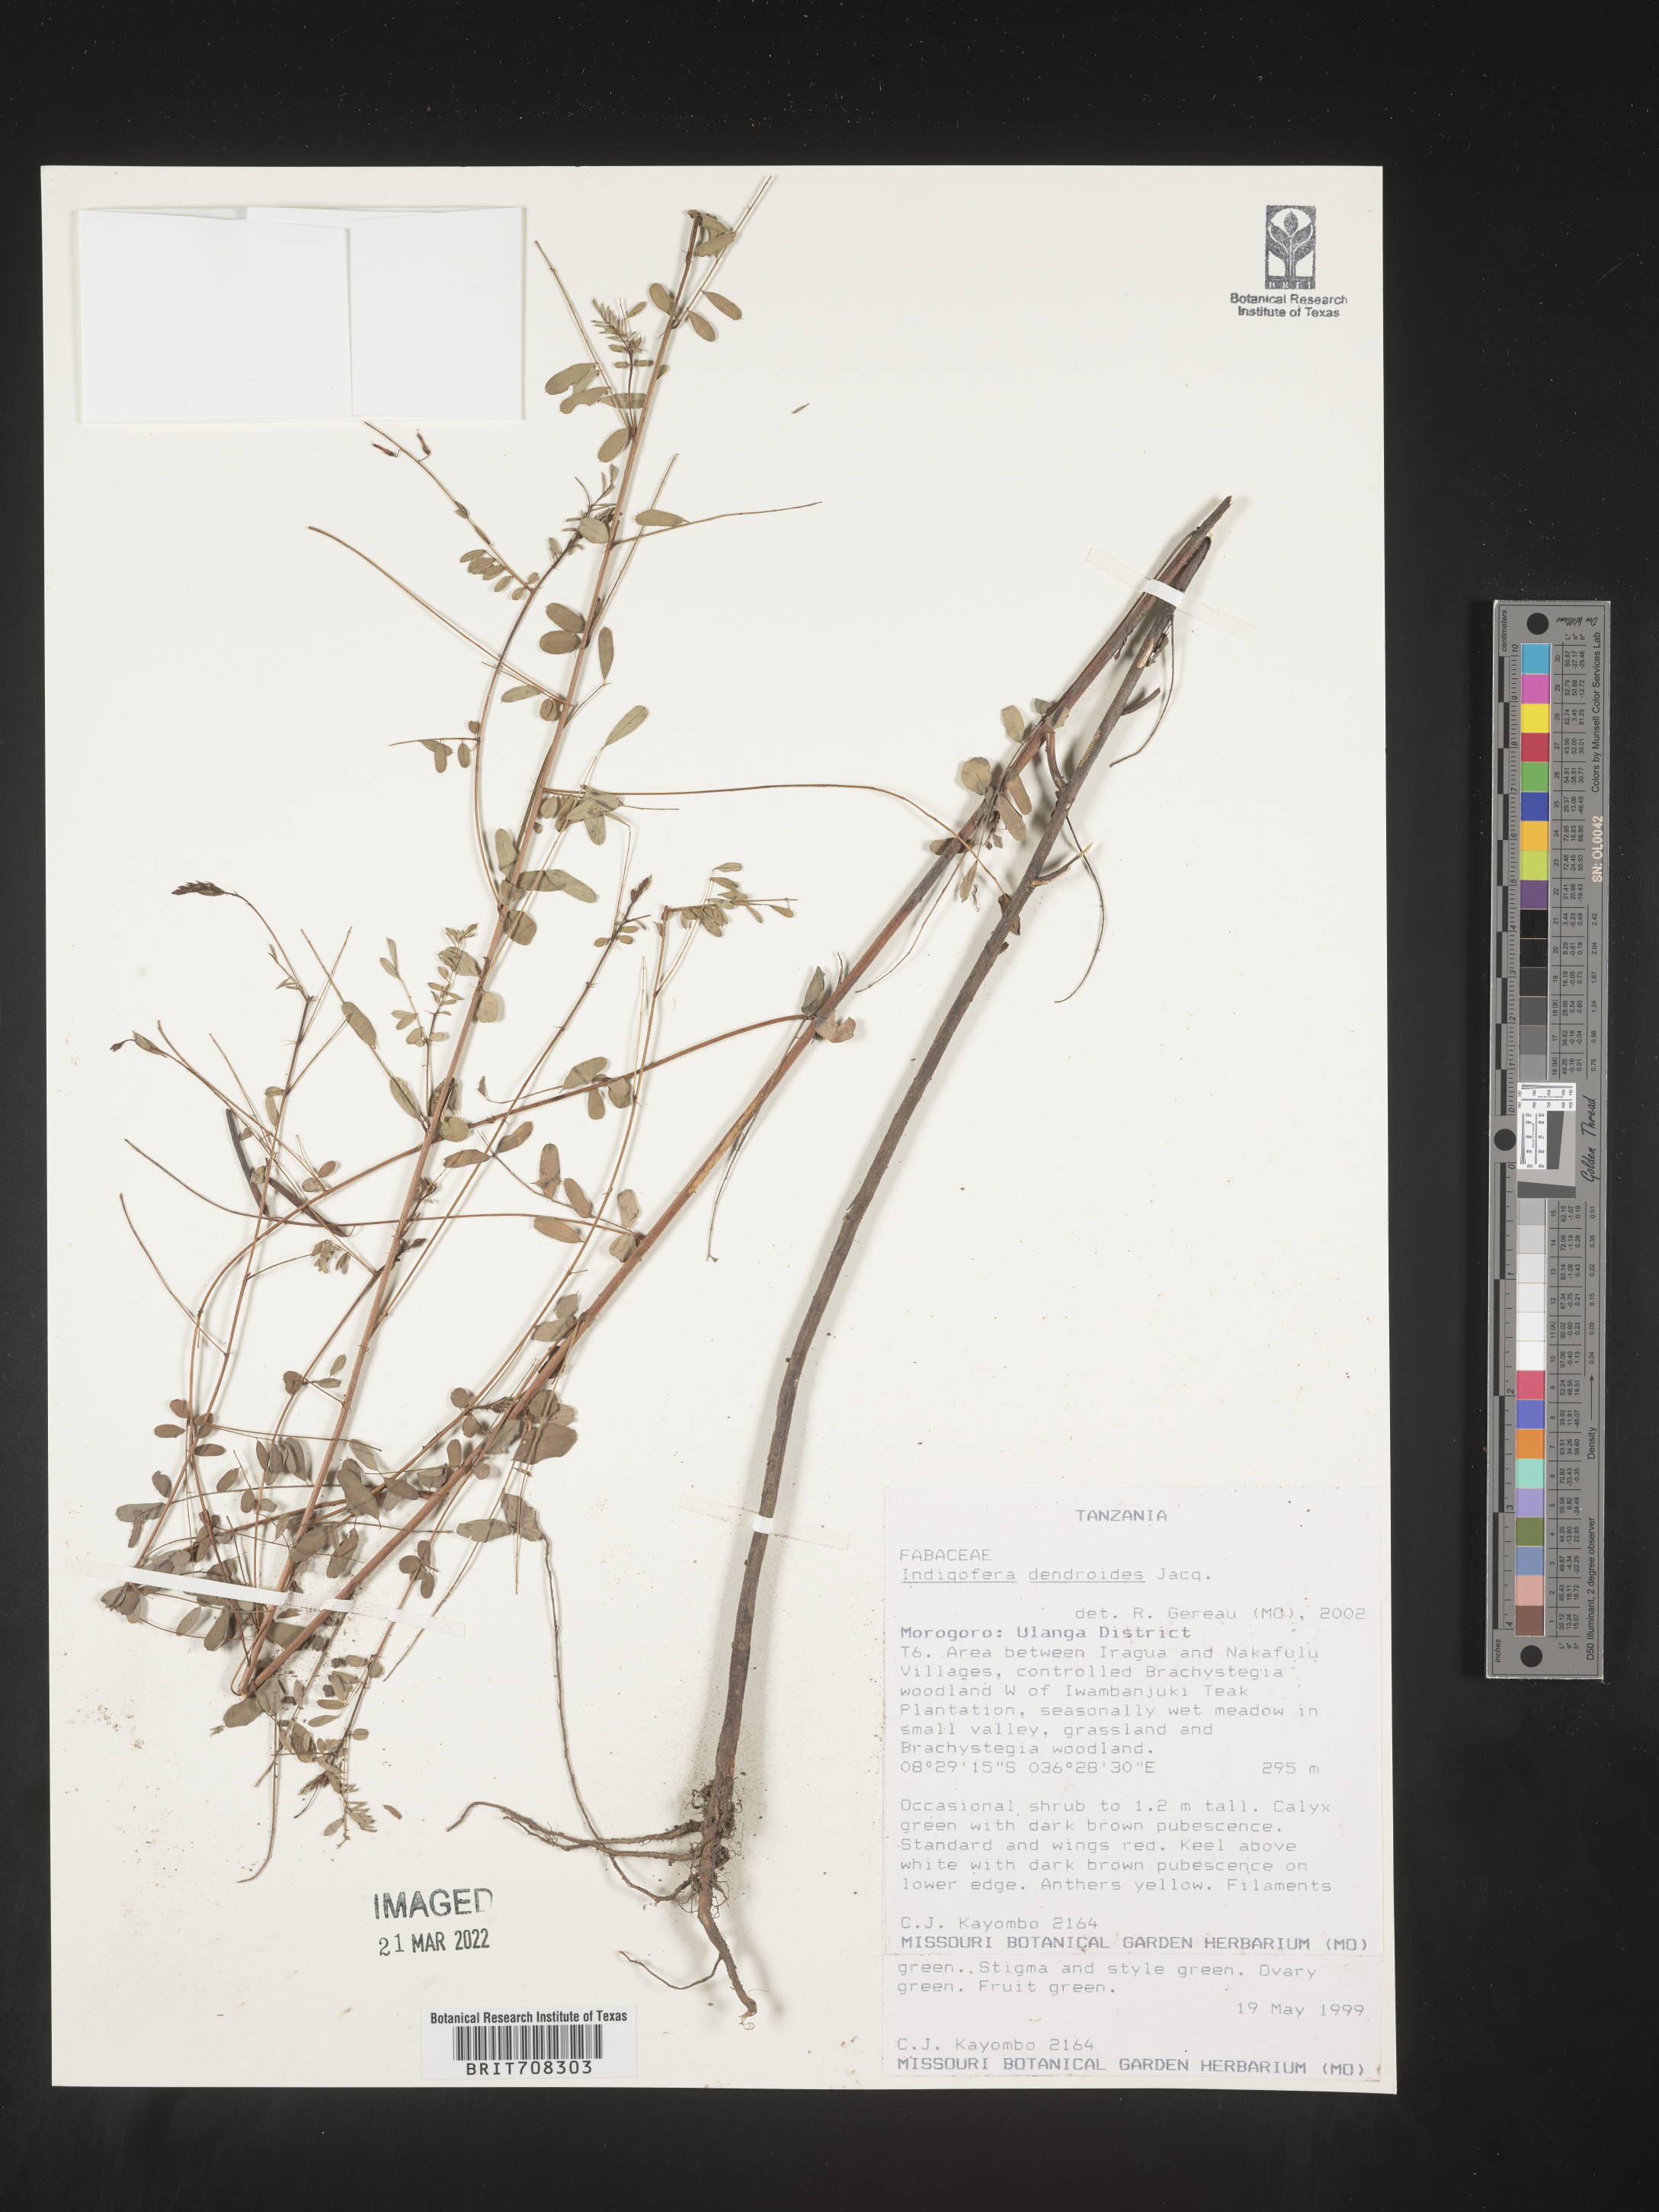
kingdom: Plantae
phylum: Tracheophyta
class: Magnoliopsida
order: Fabales
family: Fabaceae
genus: Indigofera
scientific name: Indigofera
